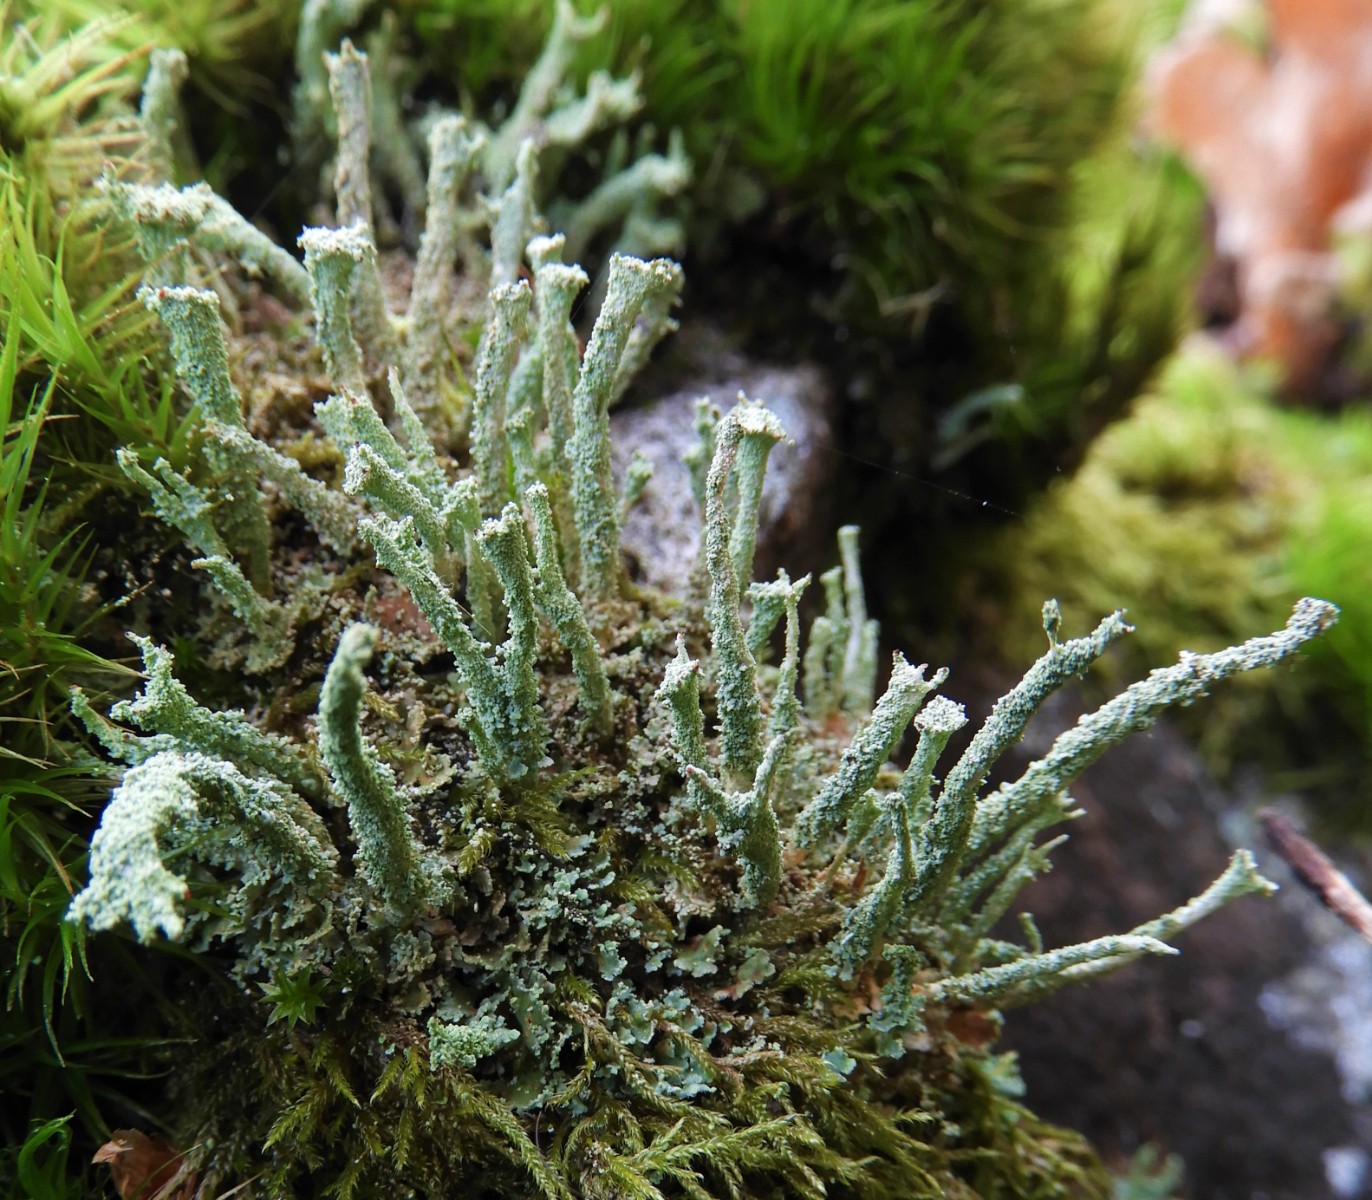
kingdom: Fungi
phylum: Ascomycota
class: Lecanoromycetes
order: Lecanorales
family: Cladoniaceae
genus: Cladonia
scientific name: Cladonia polydactyla
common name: vifte-bægerlav
